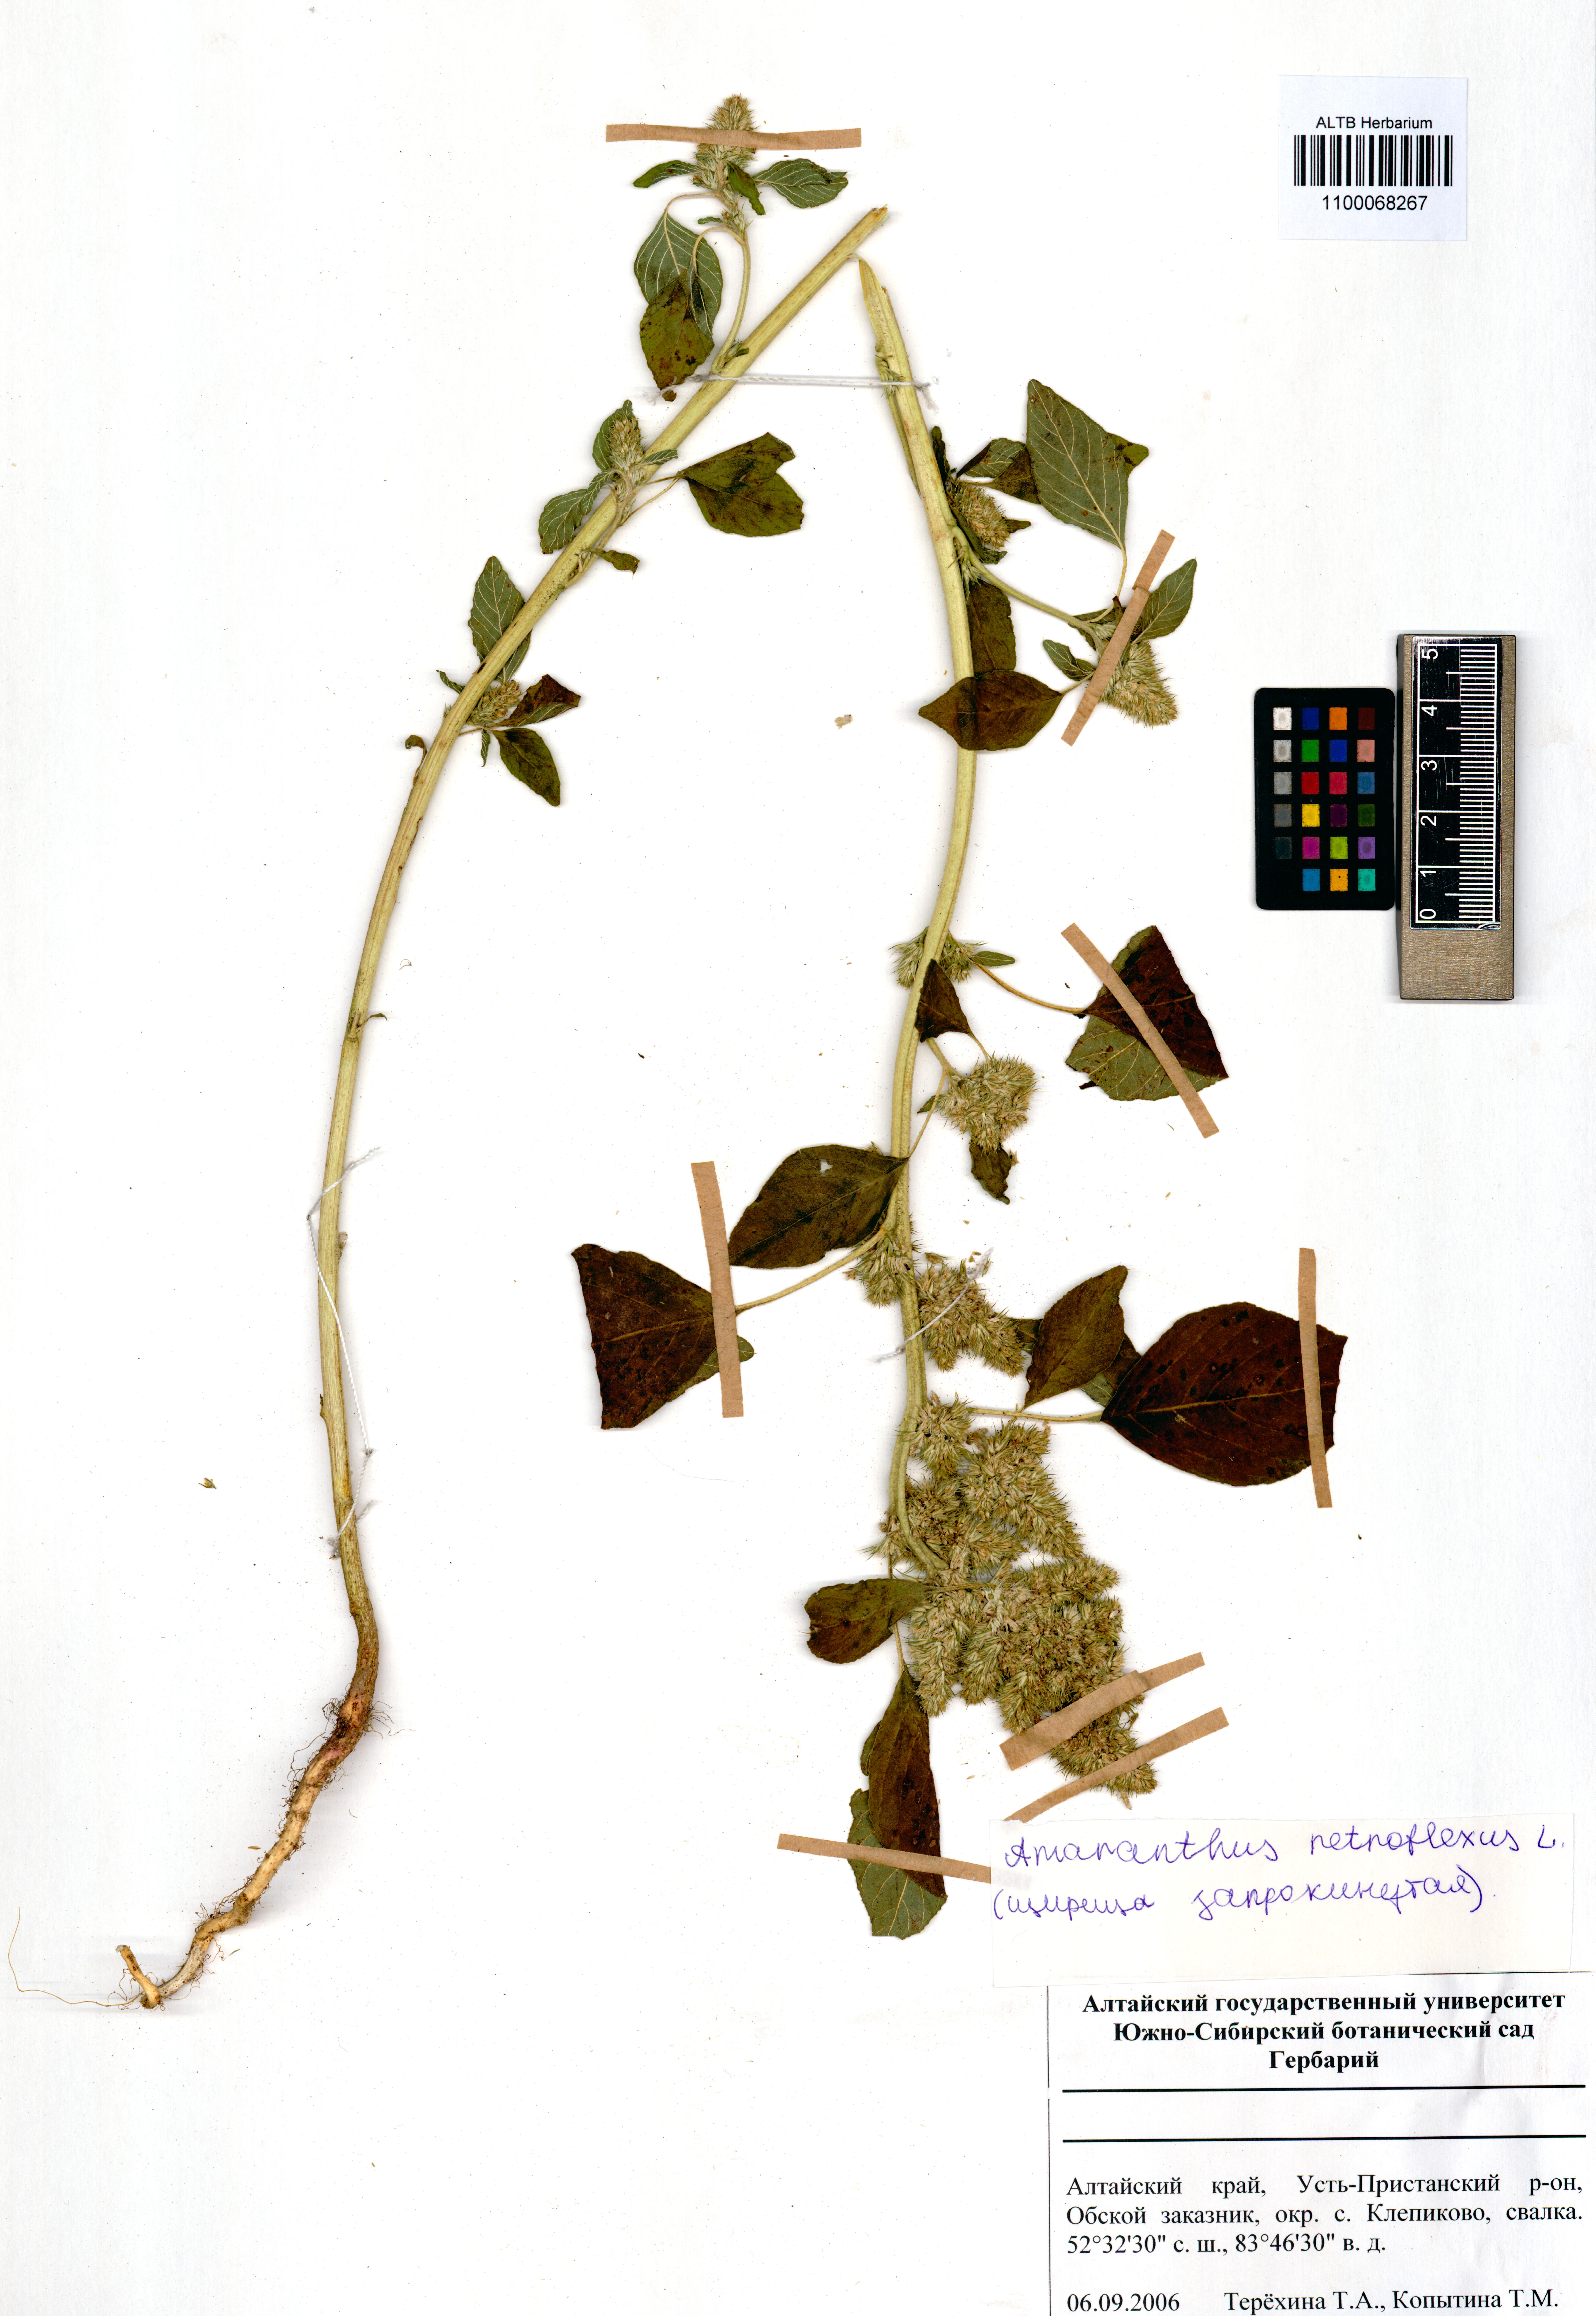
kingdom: Plantae
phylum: Tracheophyta
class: Magnoliopsida
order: Caryophyllales
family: Amaranthaceae
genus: Amaranthus
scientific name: Amaranthus retroflexus
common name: Redroot amaranth
